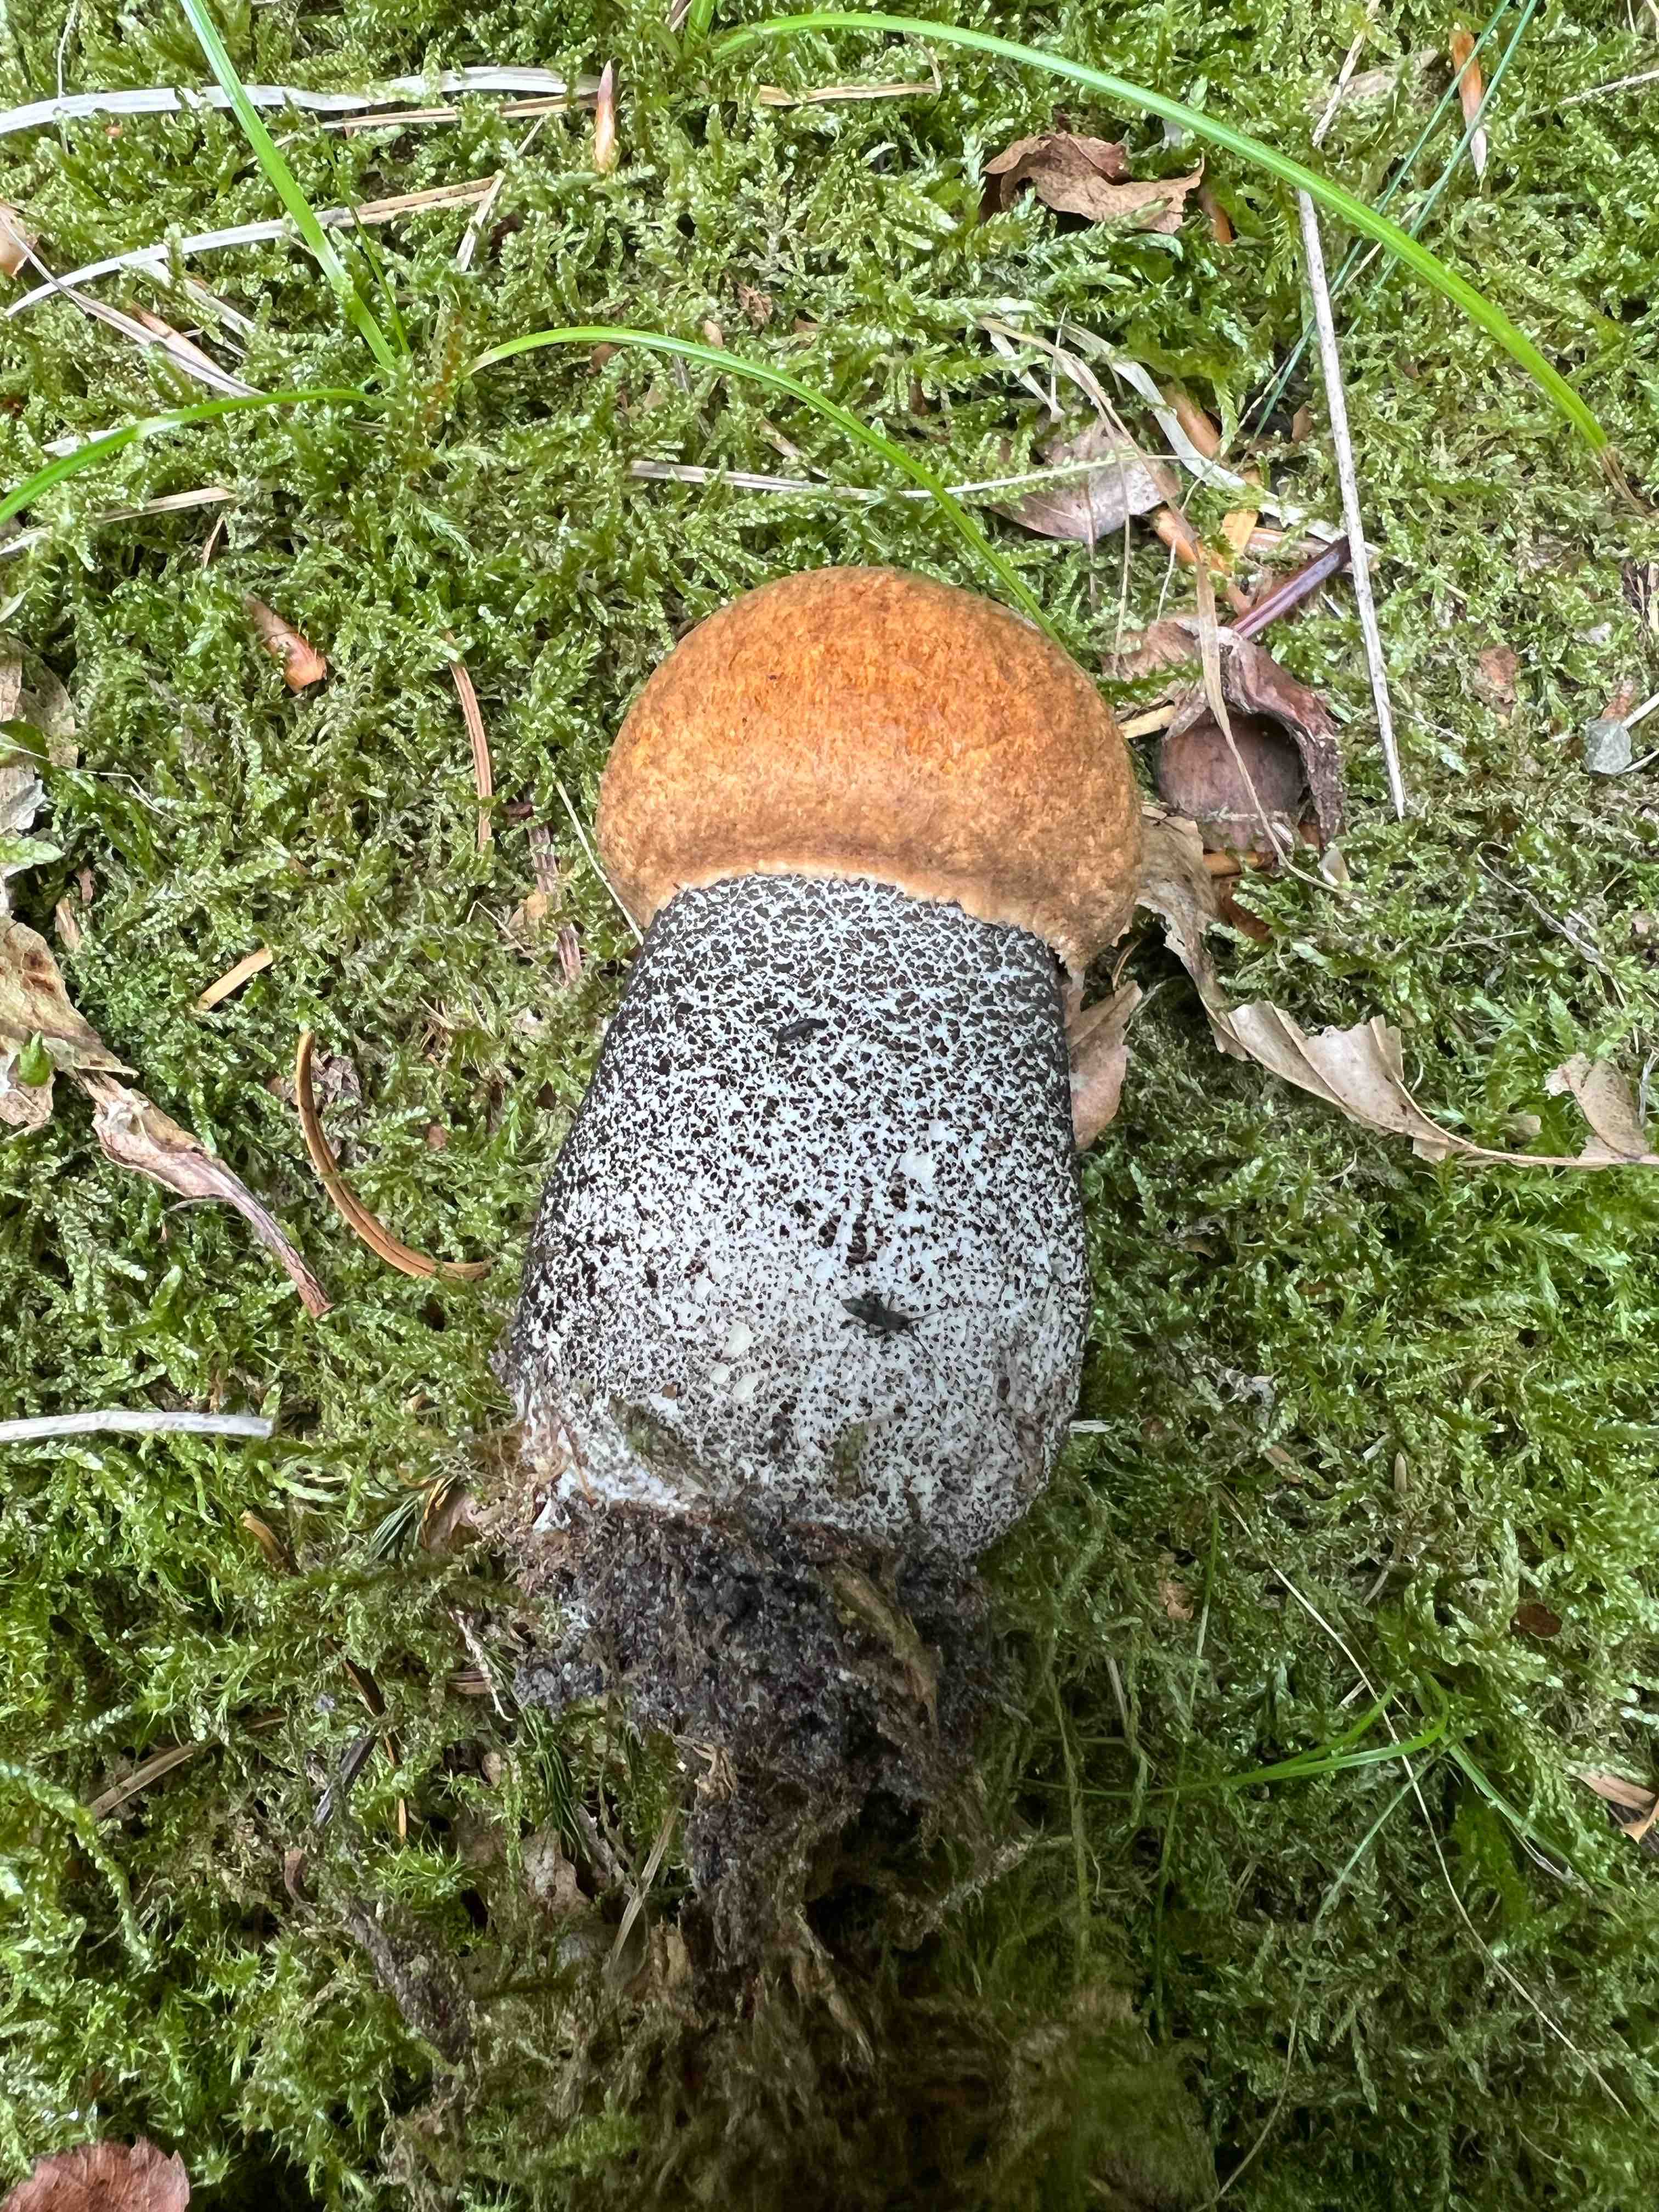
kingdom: Fungi
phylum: Basidiomycota
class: Agaricomycetes
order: Boletales
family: Boletaceae
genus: Leccinum
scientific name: Leccinum versipelle
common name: orange skælrørhat
